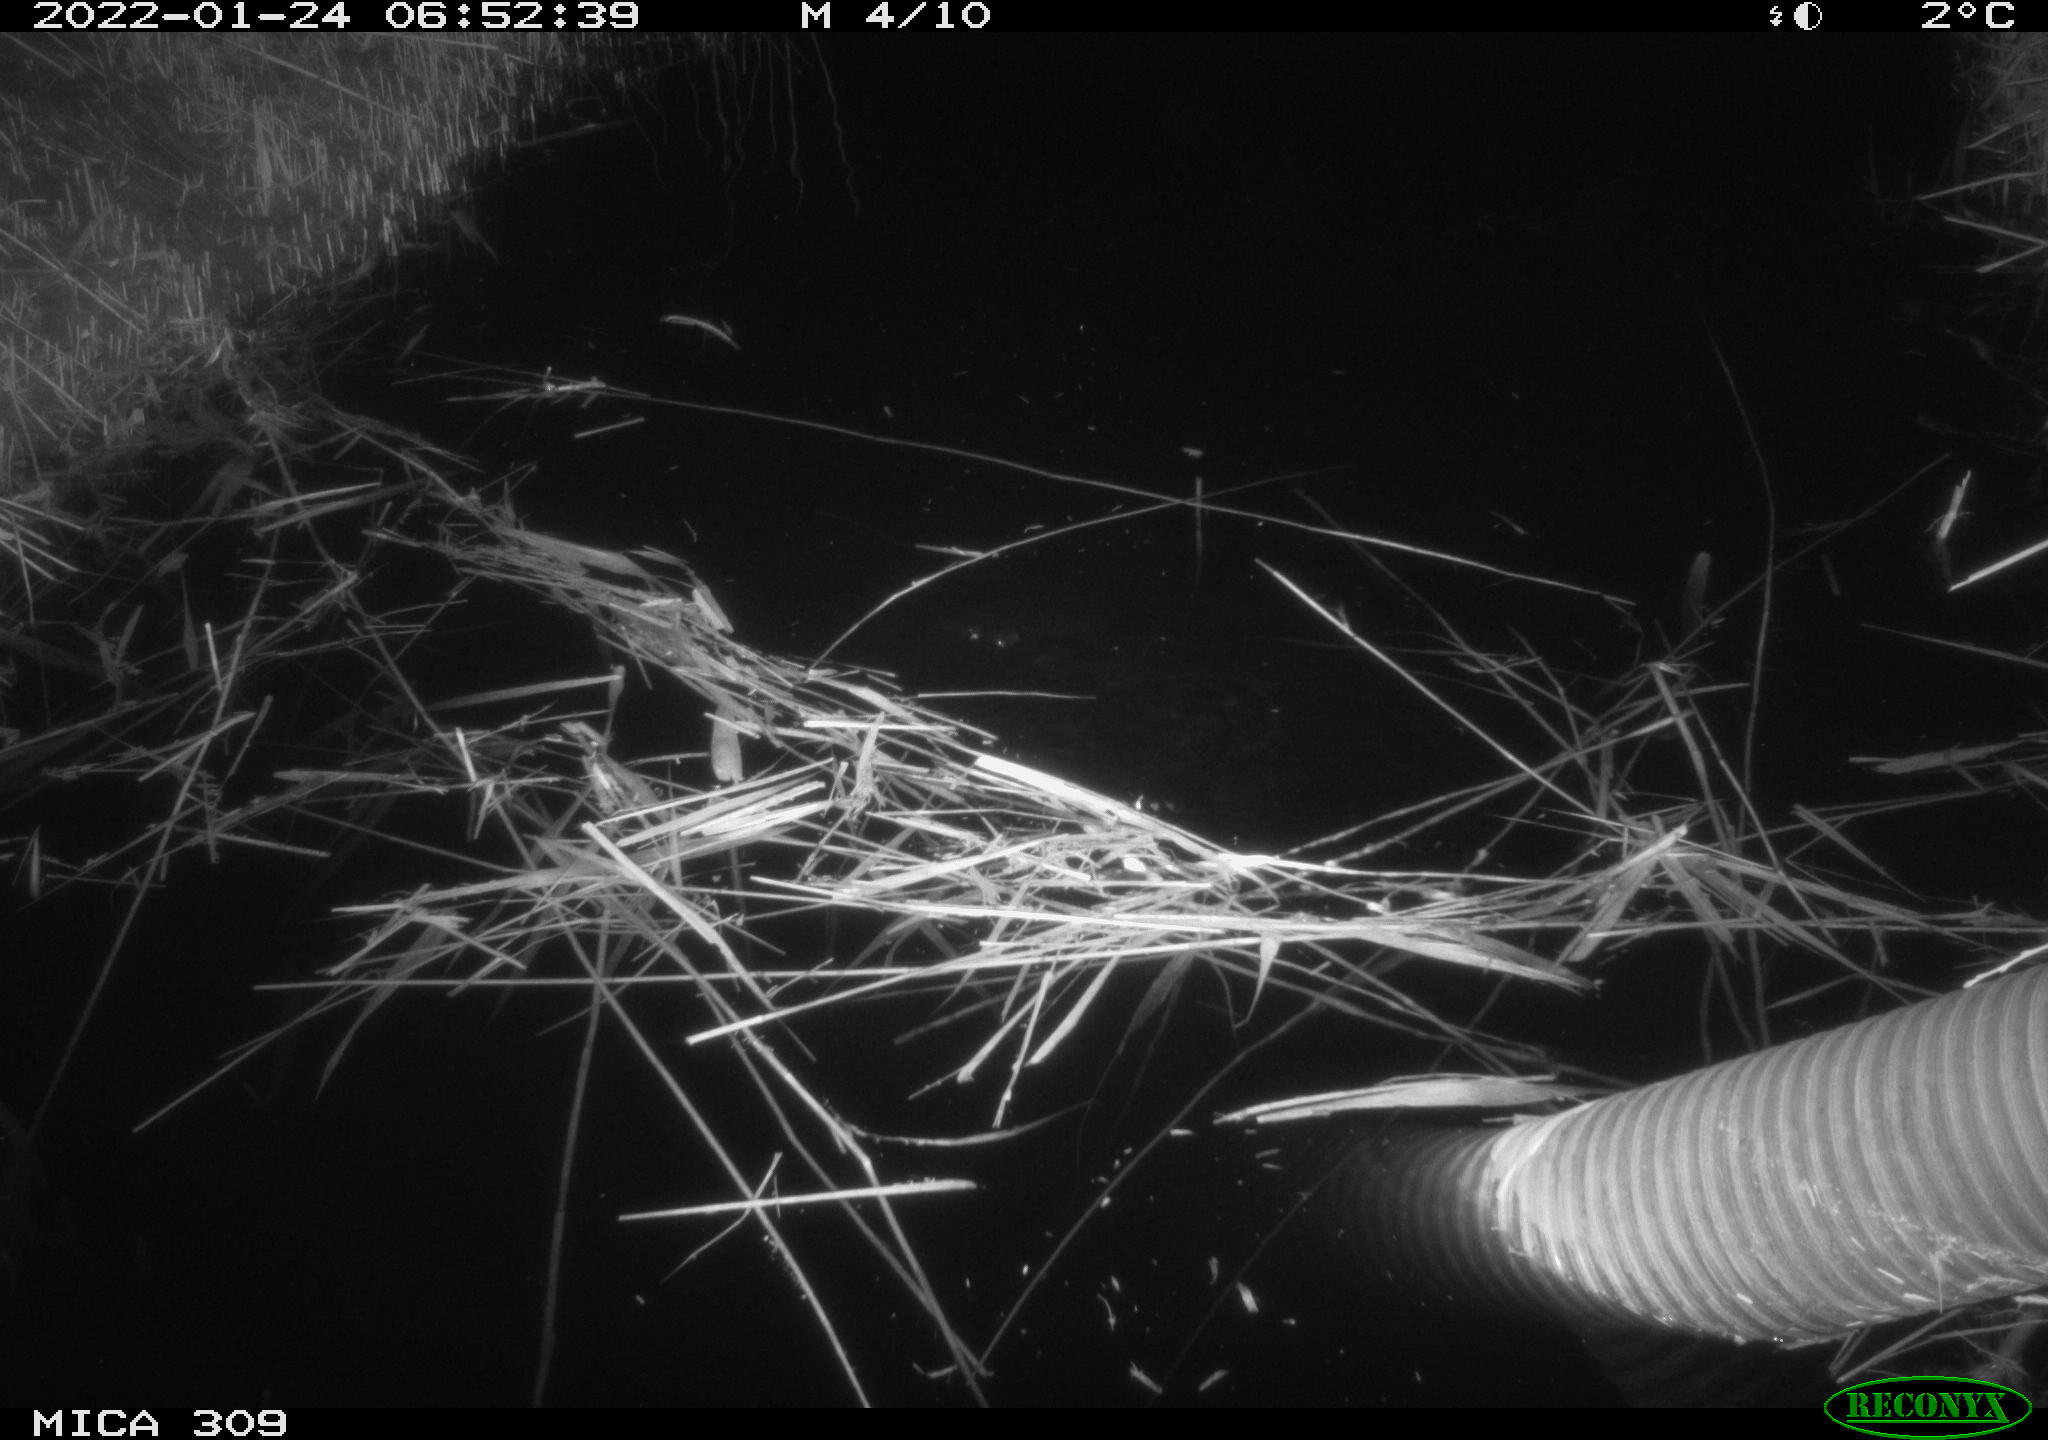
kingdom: Animalia
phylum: Chordata
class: Mammalia
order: Rodentia
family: Cricetidae
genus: Ondatra
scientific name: Ondatra zibethicus
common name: Muskrat
